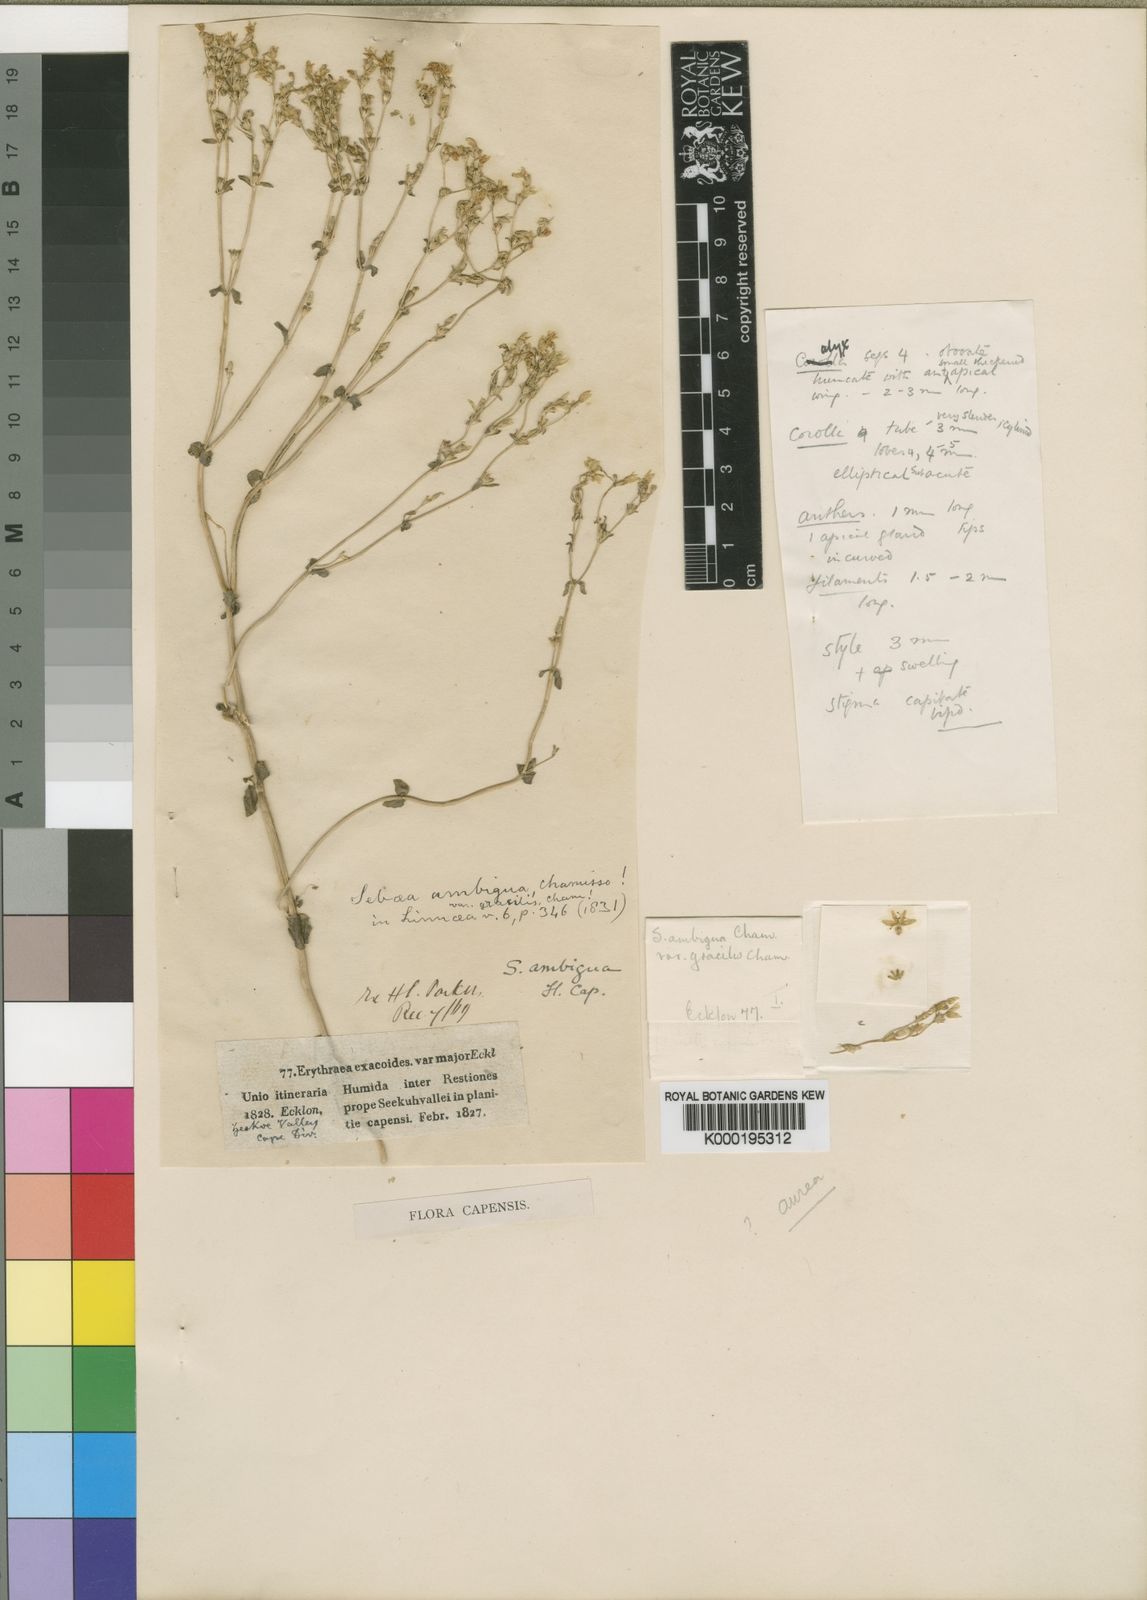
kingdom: Plantae
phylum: Tracheophyta
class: Magnoliopsida
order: Gentianales
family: Gentianaceae
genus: Sebaea
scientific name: Sebaea aurea
